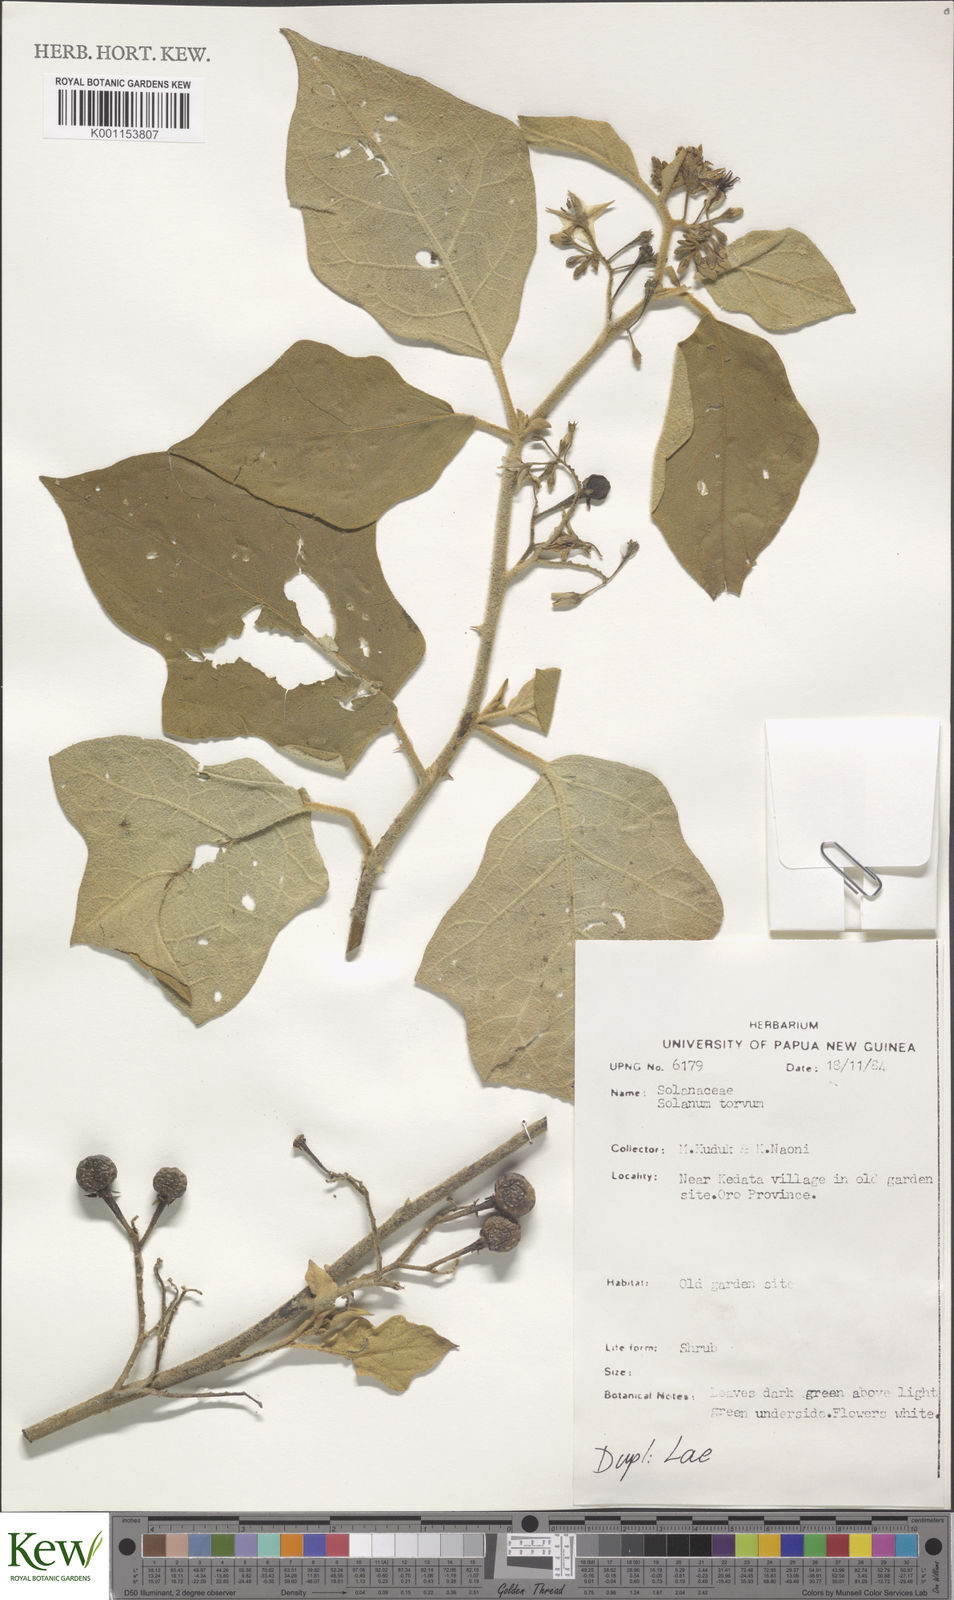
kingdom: Plantae
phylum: Tracheophyta
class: Magnoliopsida
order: Solanales
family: Solanaceae
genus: Solanum
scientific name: Solanum torvum
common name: Turkey berry
